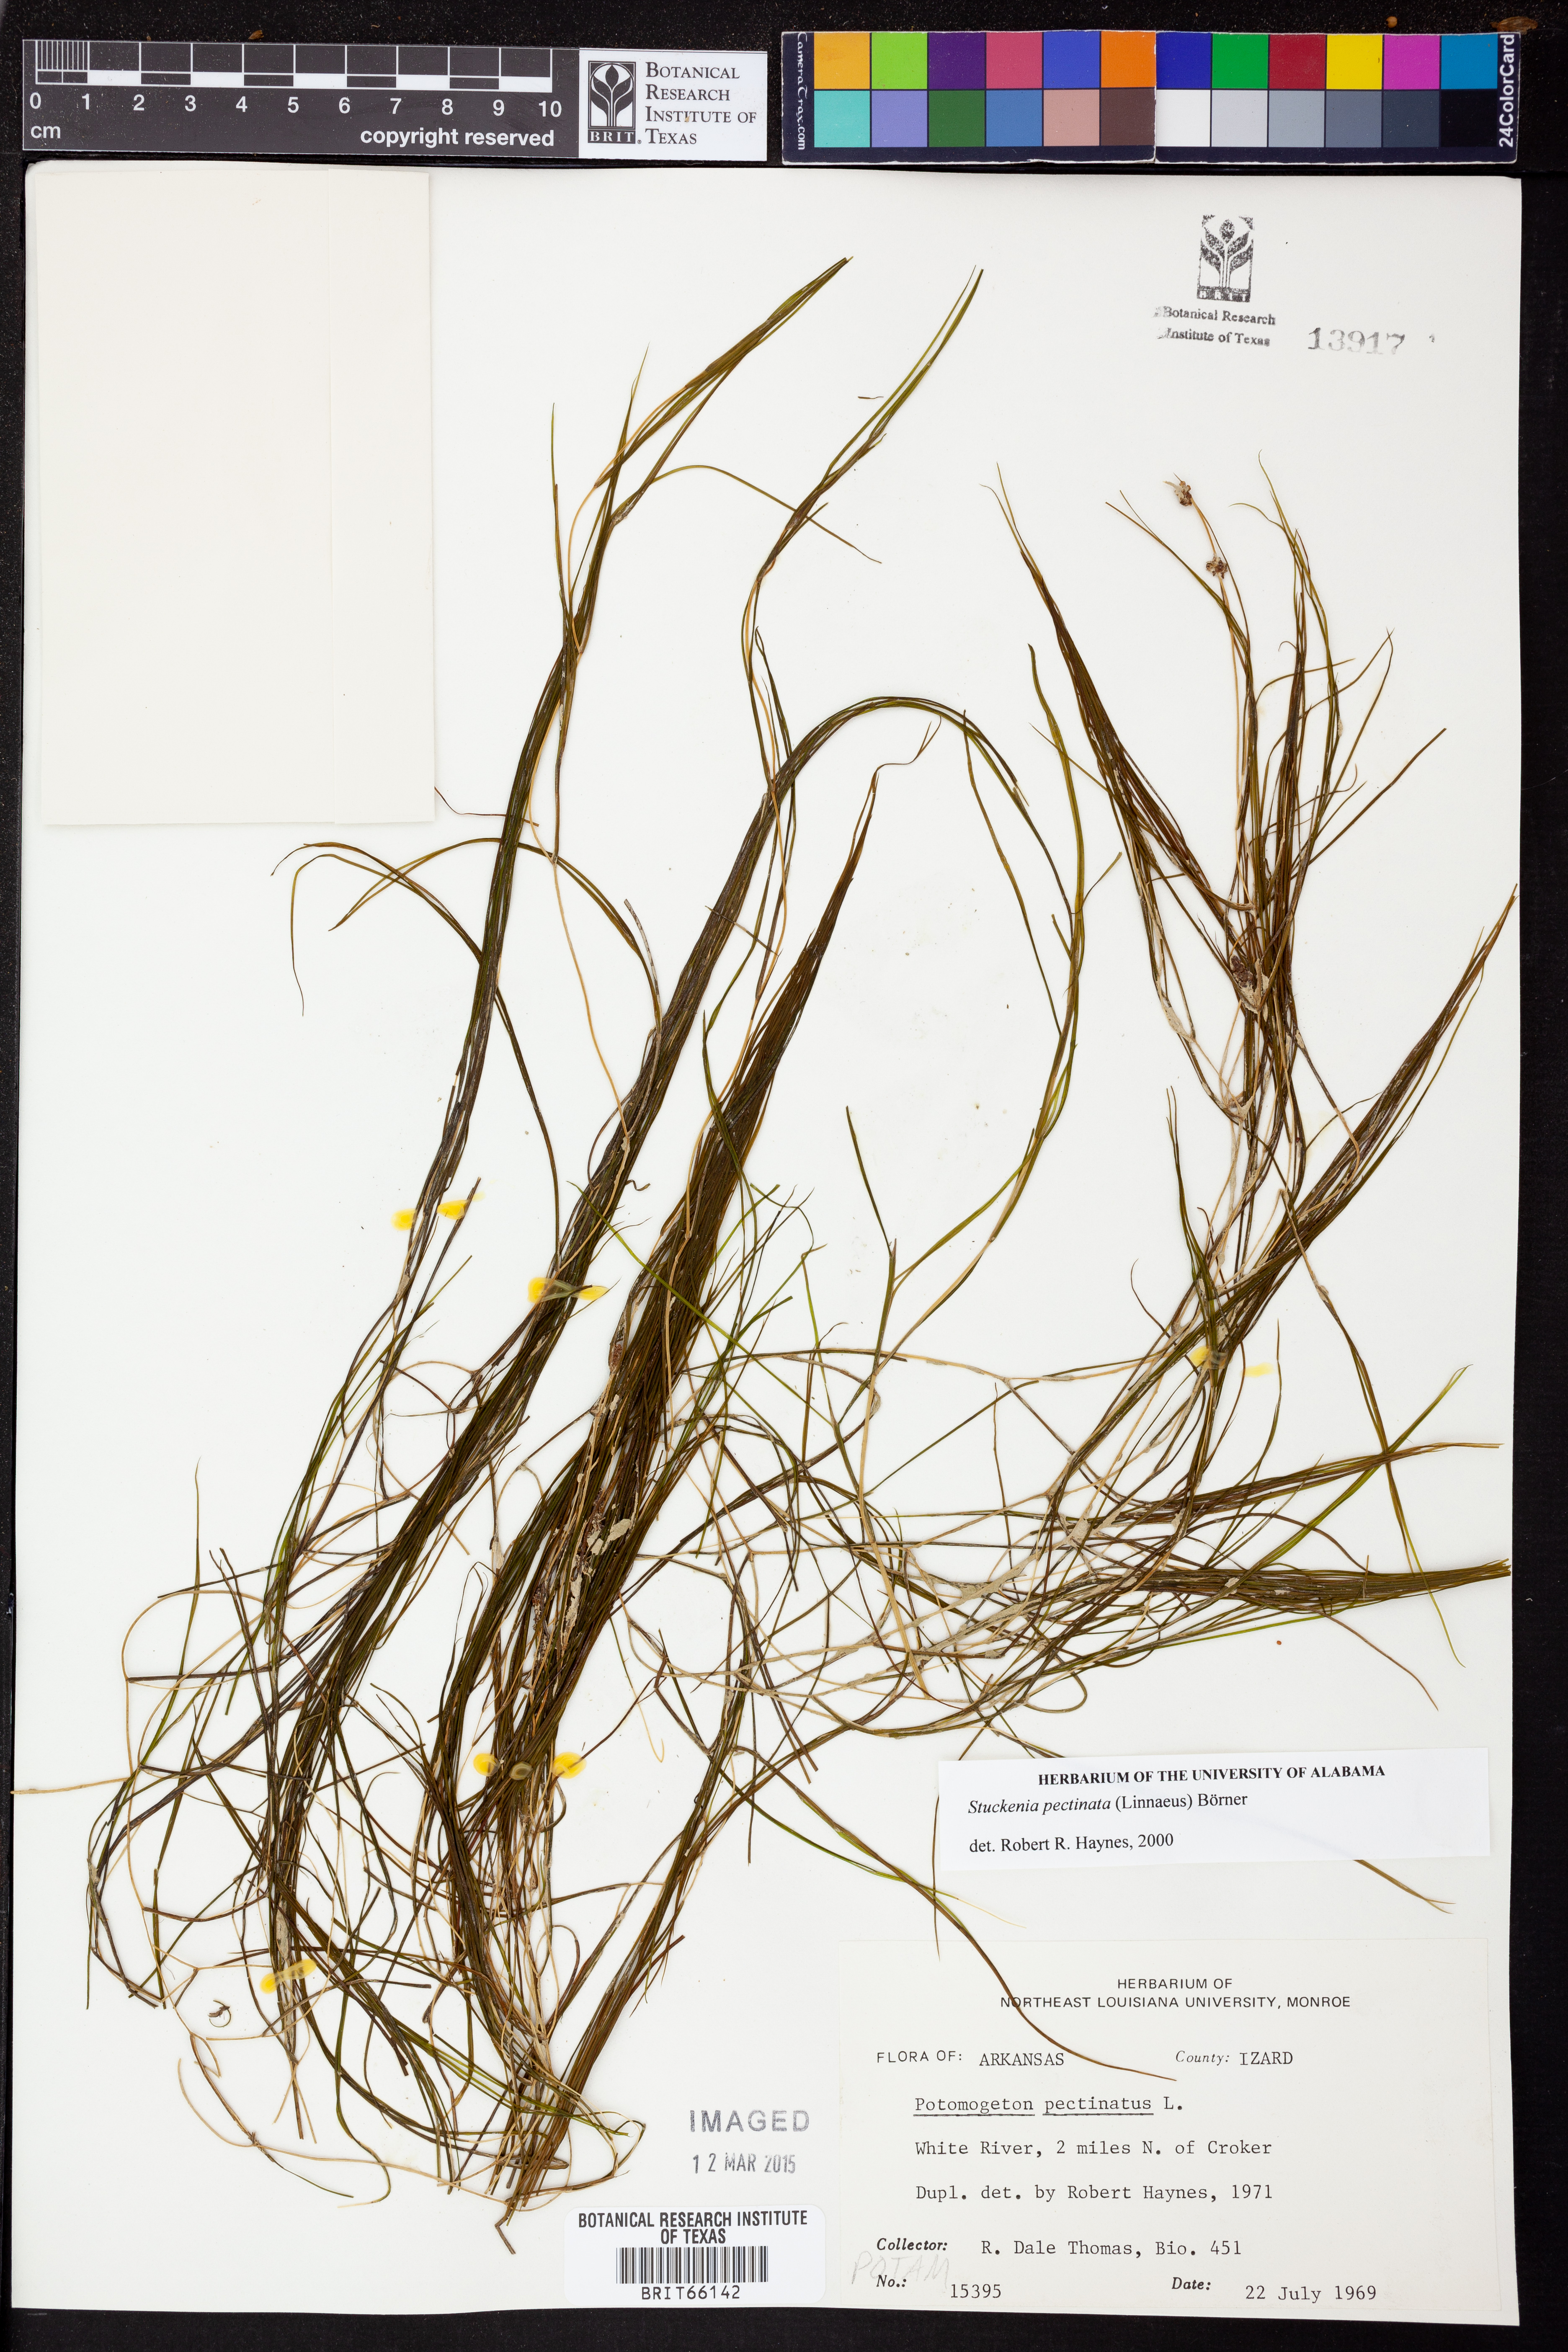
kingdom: Plantae
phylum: Tracheophyta
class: Liliopsida
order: Alismatales
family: Potamogetonaceae
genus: Stuckenia
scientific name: Stuckenia pectinata
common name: Sago pondweed
